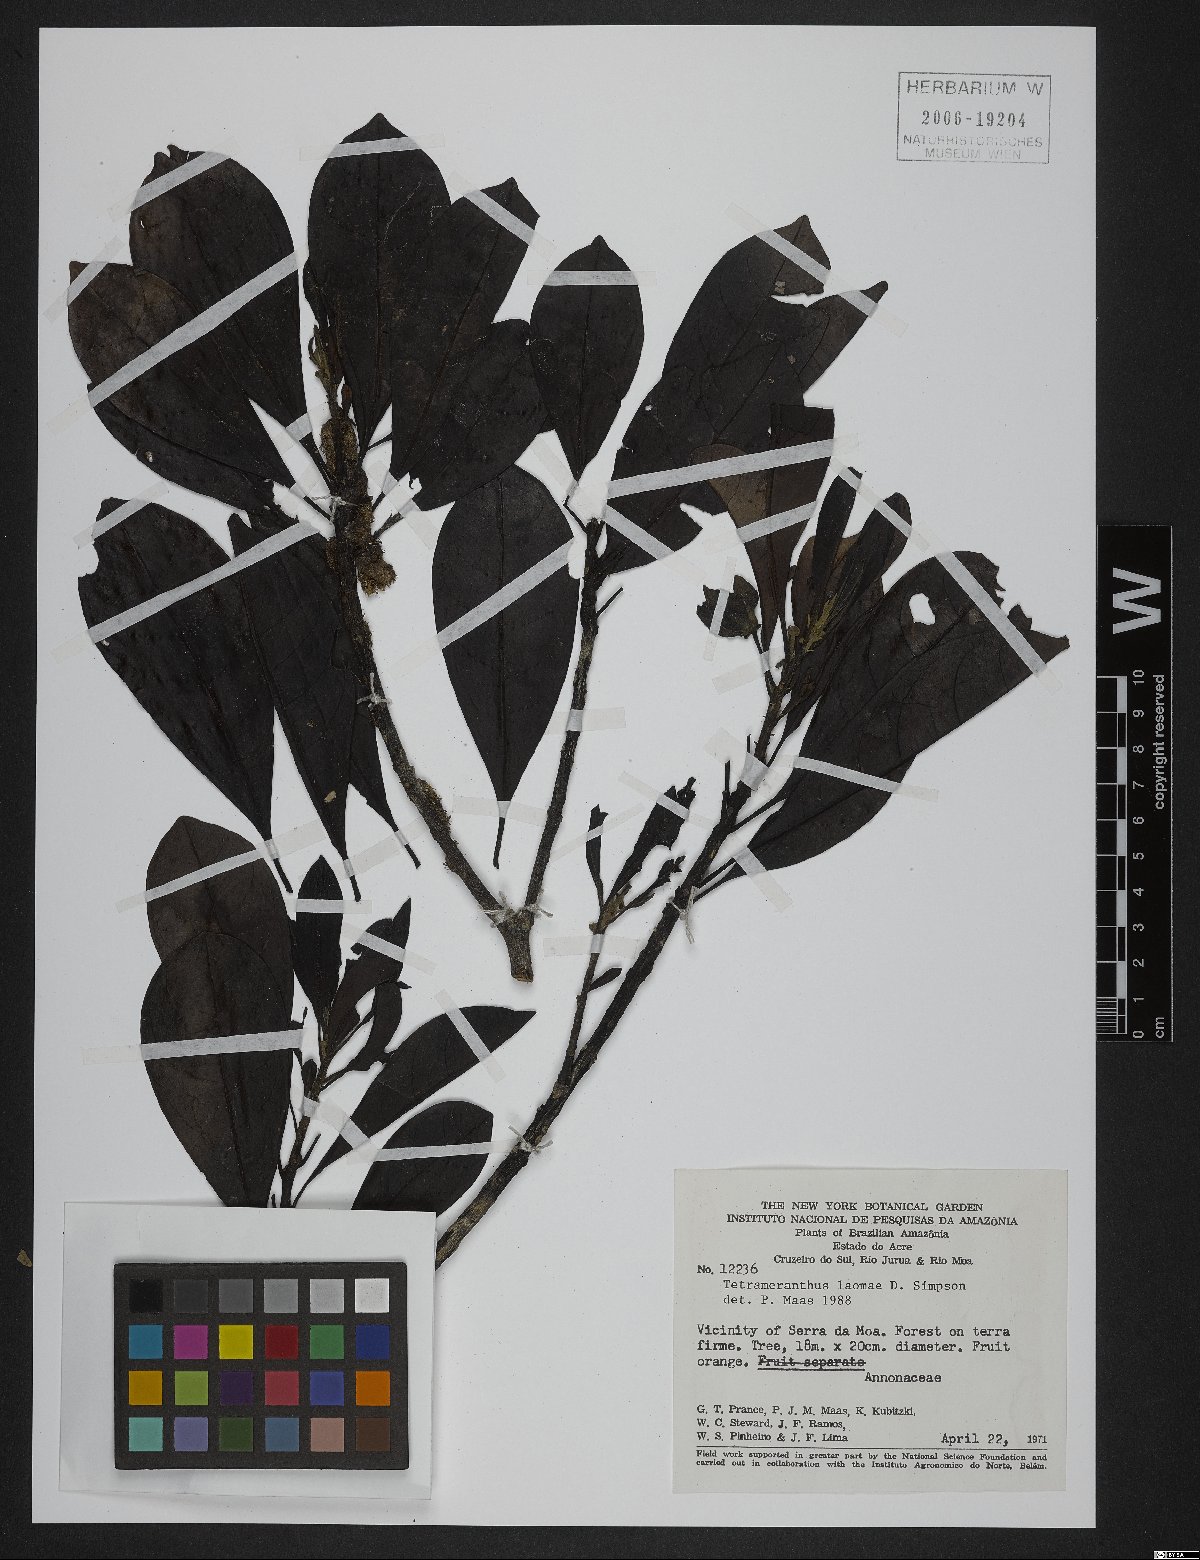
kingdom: Plantae
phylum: Tracheophyta
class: Magnoliopsida
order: Magnoliales
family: Annonaceae
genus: Tetrameranthus
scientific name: Tetrameranthus laomae
